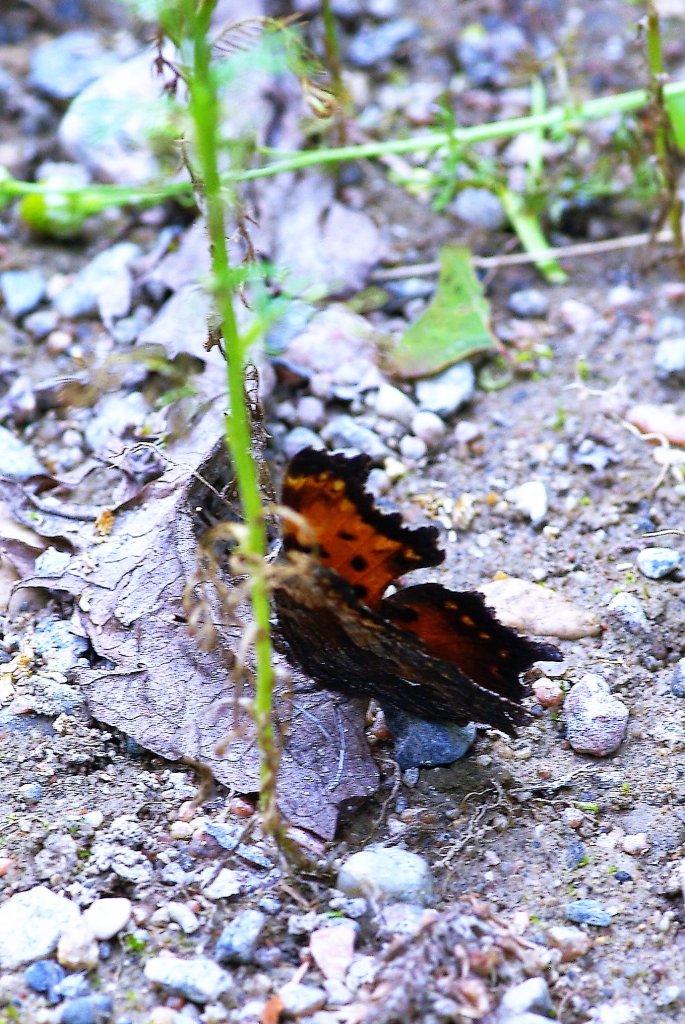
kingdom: Animalia
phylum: Arthropoda
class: Insecta
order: Lepidoptera
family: Nymphalidae
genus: Polygonia
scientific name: Polygonia faunus
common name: Green Comma
